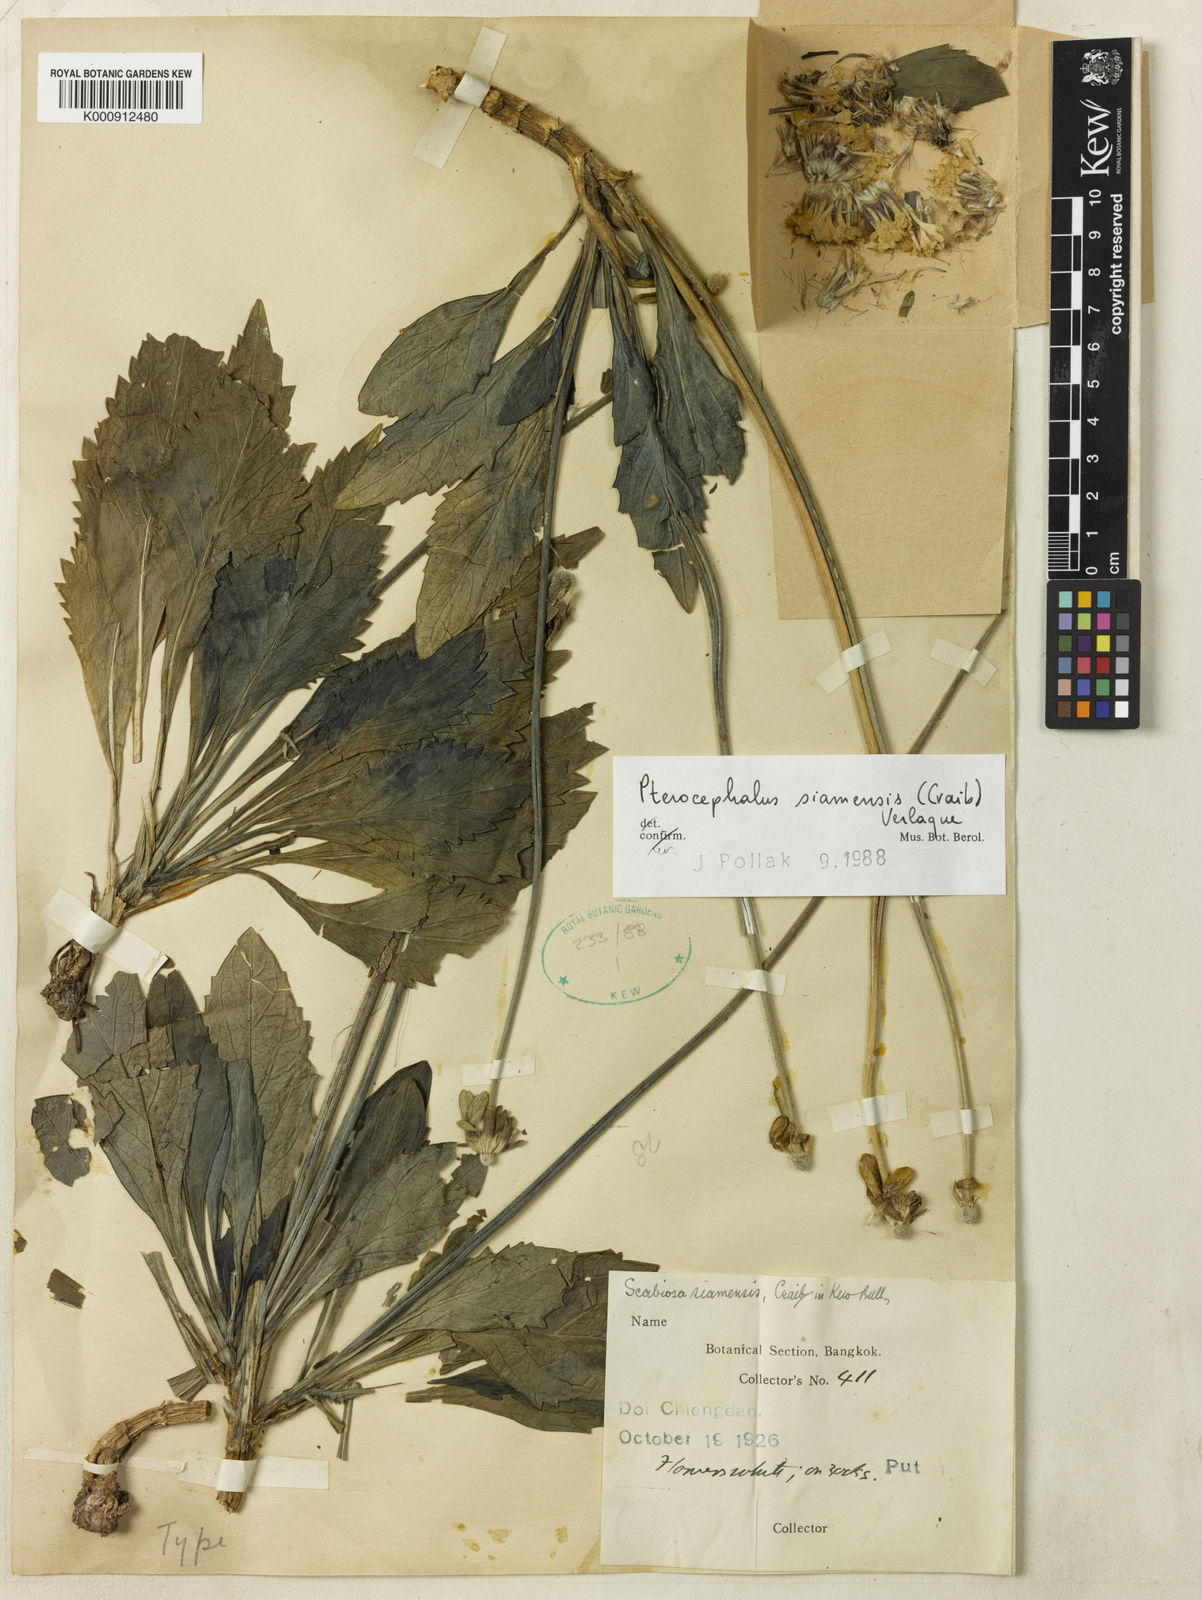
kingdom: Plantae
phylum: Tracheophyta
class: Magnoliopsida
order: Dipsacales
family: Caprifoliaceae
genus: Bassecoia
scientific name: Bassecoia siamensis
